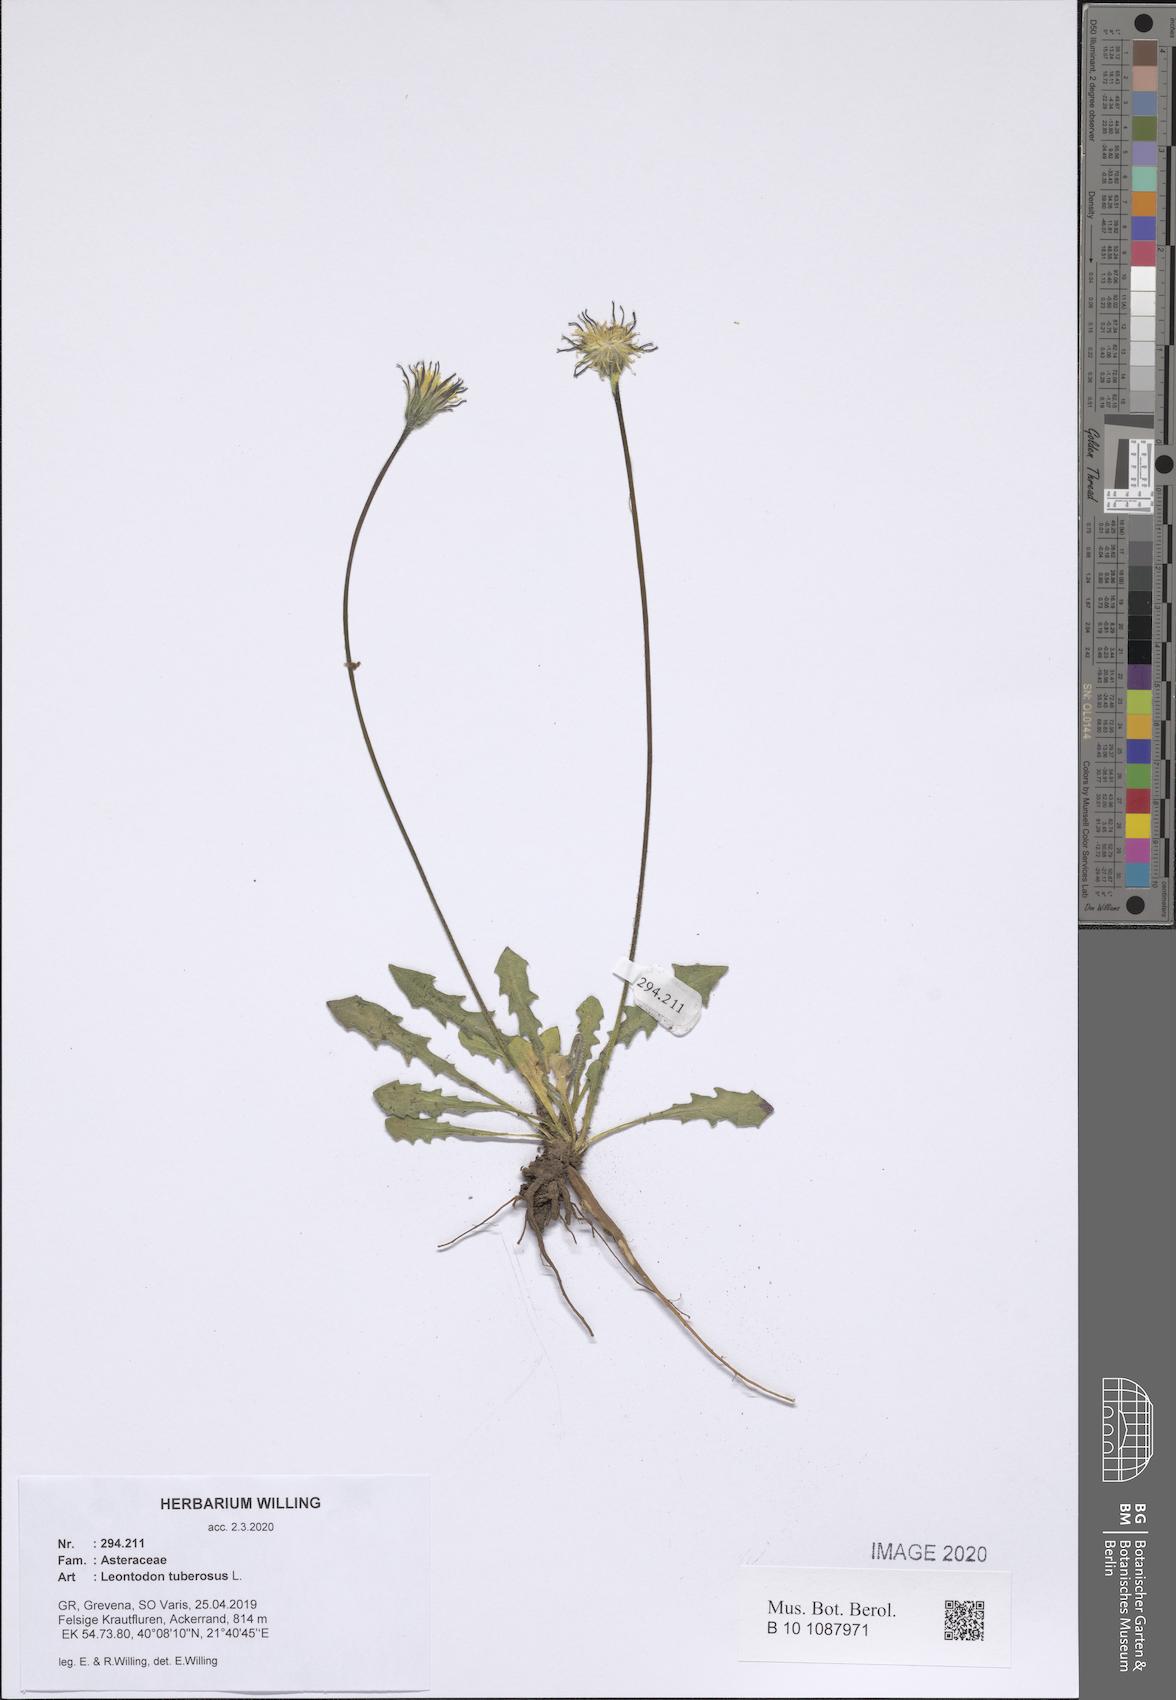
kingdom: Plantae
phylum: Tracheophyta
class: Magnoliopsida
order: Asterales
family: Asteraceae
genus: Thrincia
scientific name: Thrincia tuberosa
